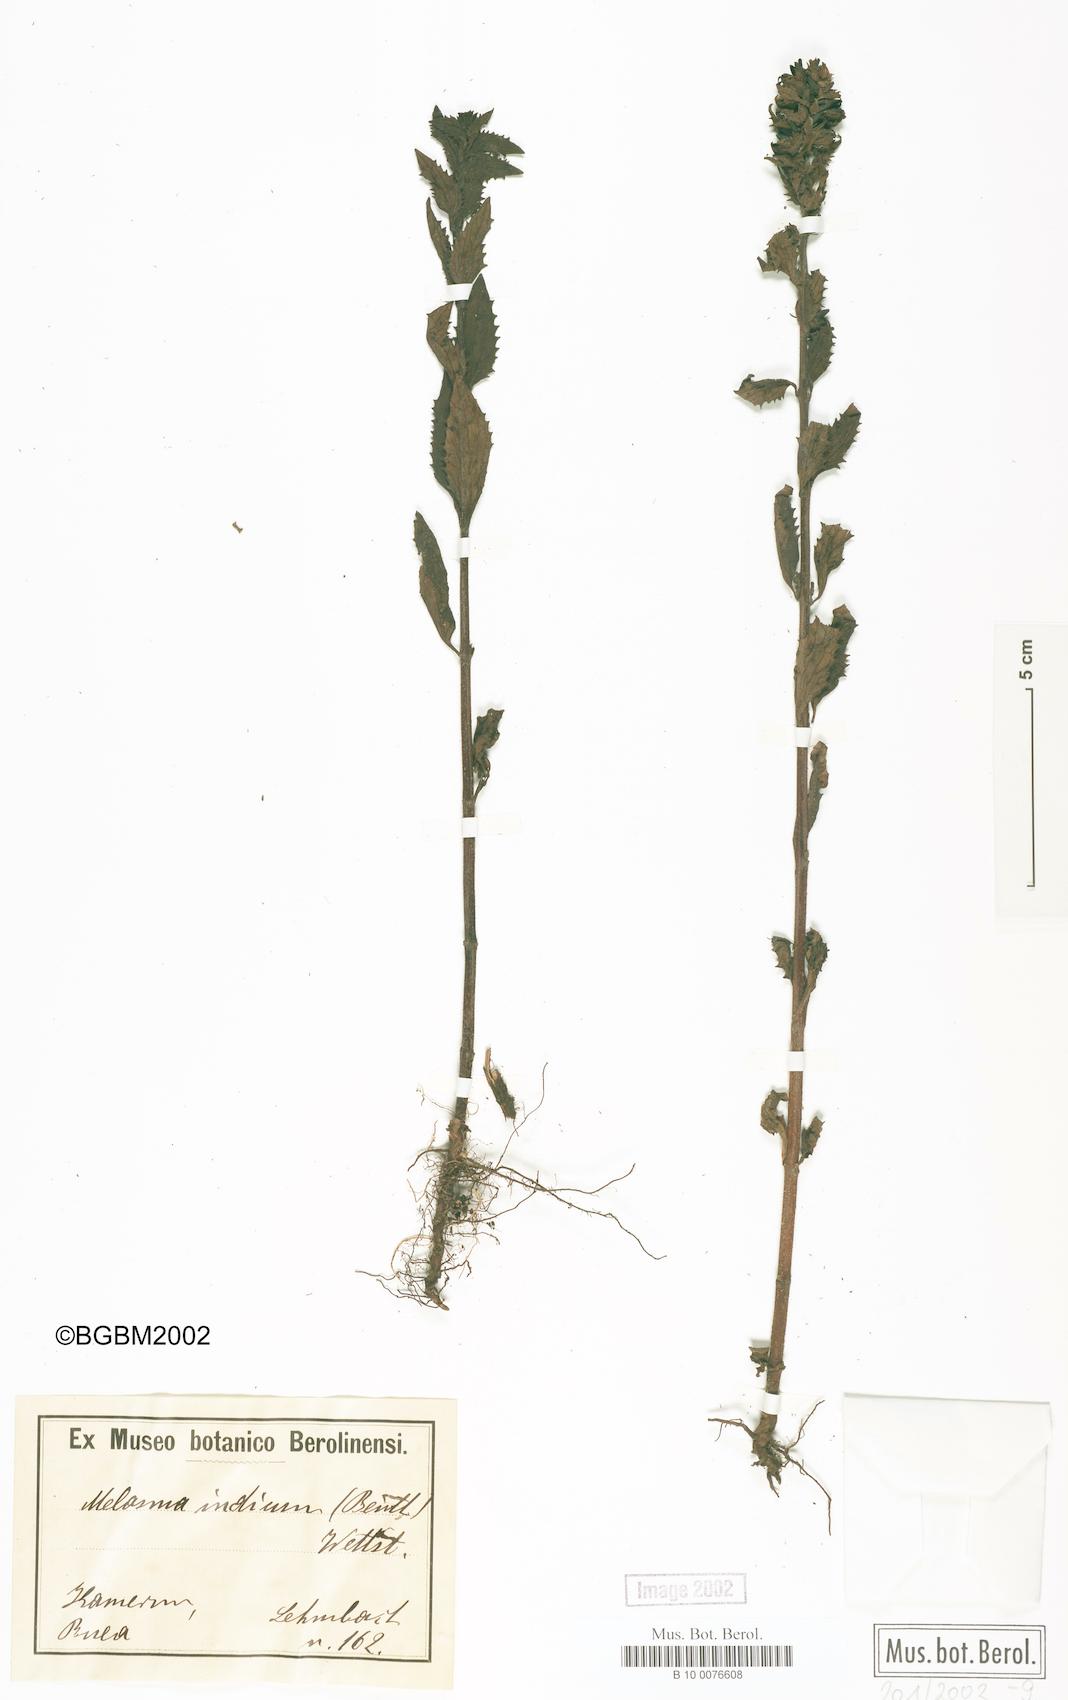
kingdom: Plantae
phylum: Tracheophyta
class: Magnoliopsida
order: Lamiales
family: Orobanchaceae
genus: Melasma
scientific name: Melasma indicum
